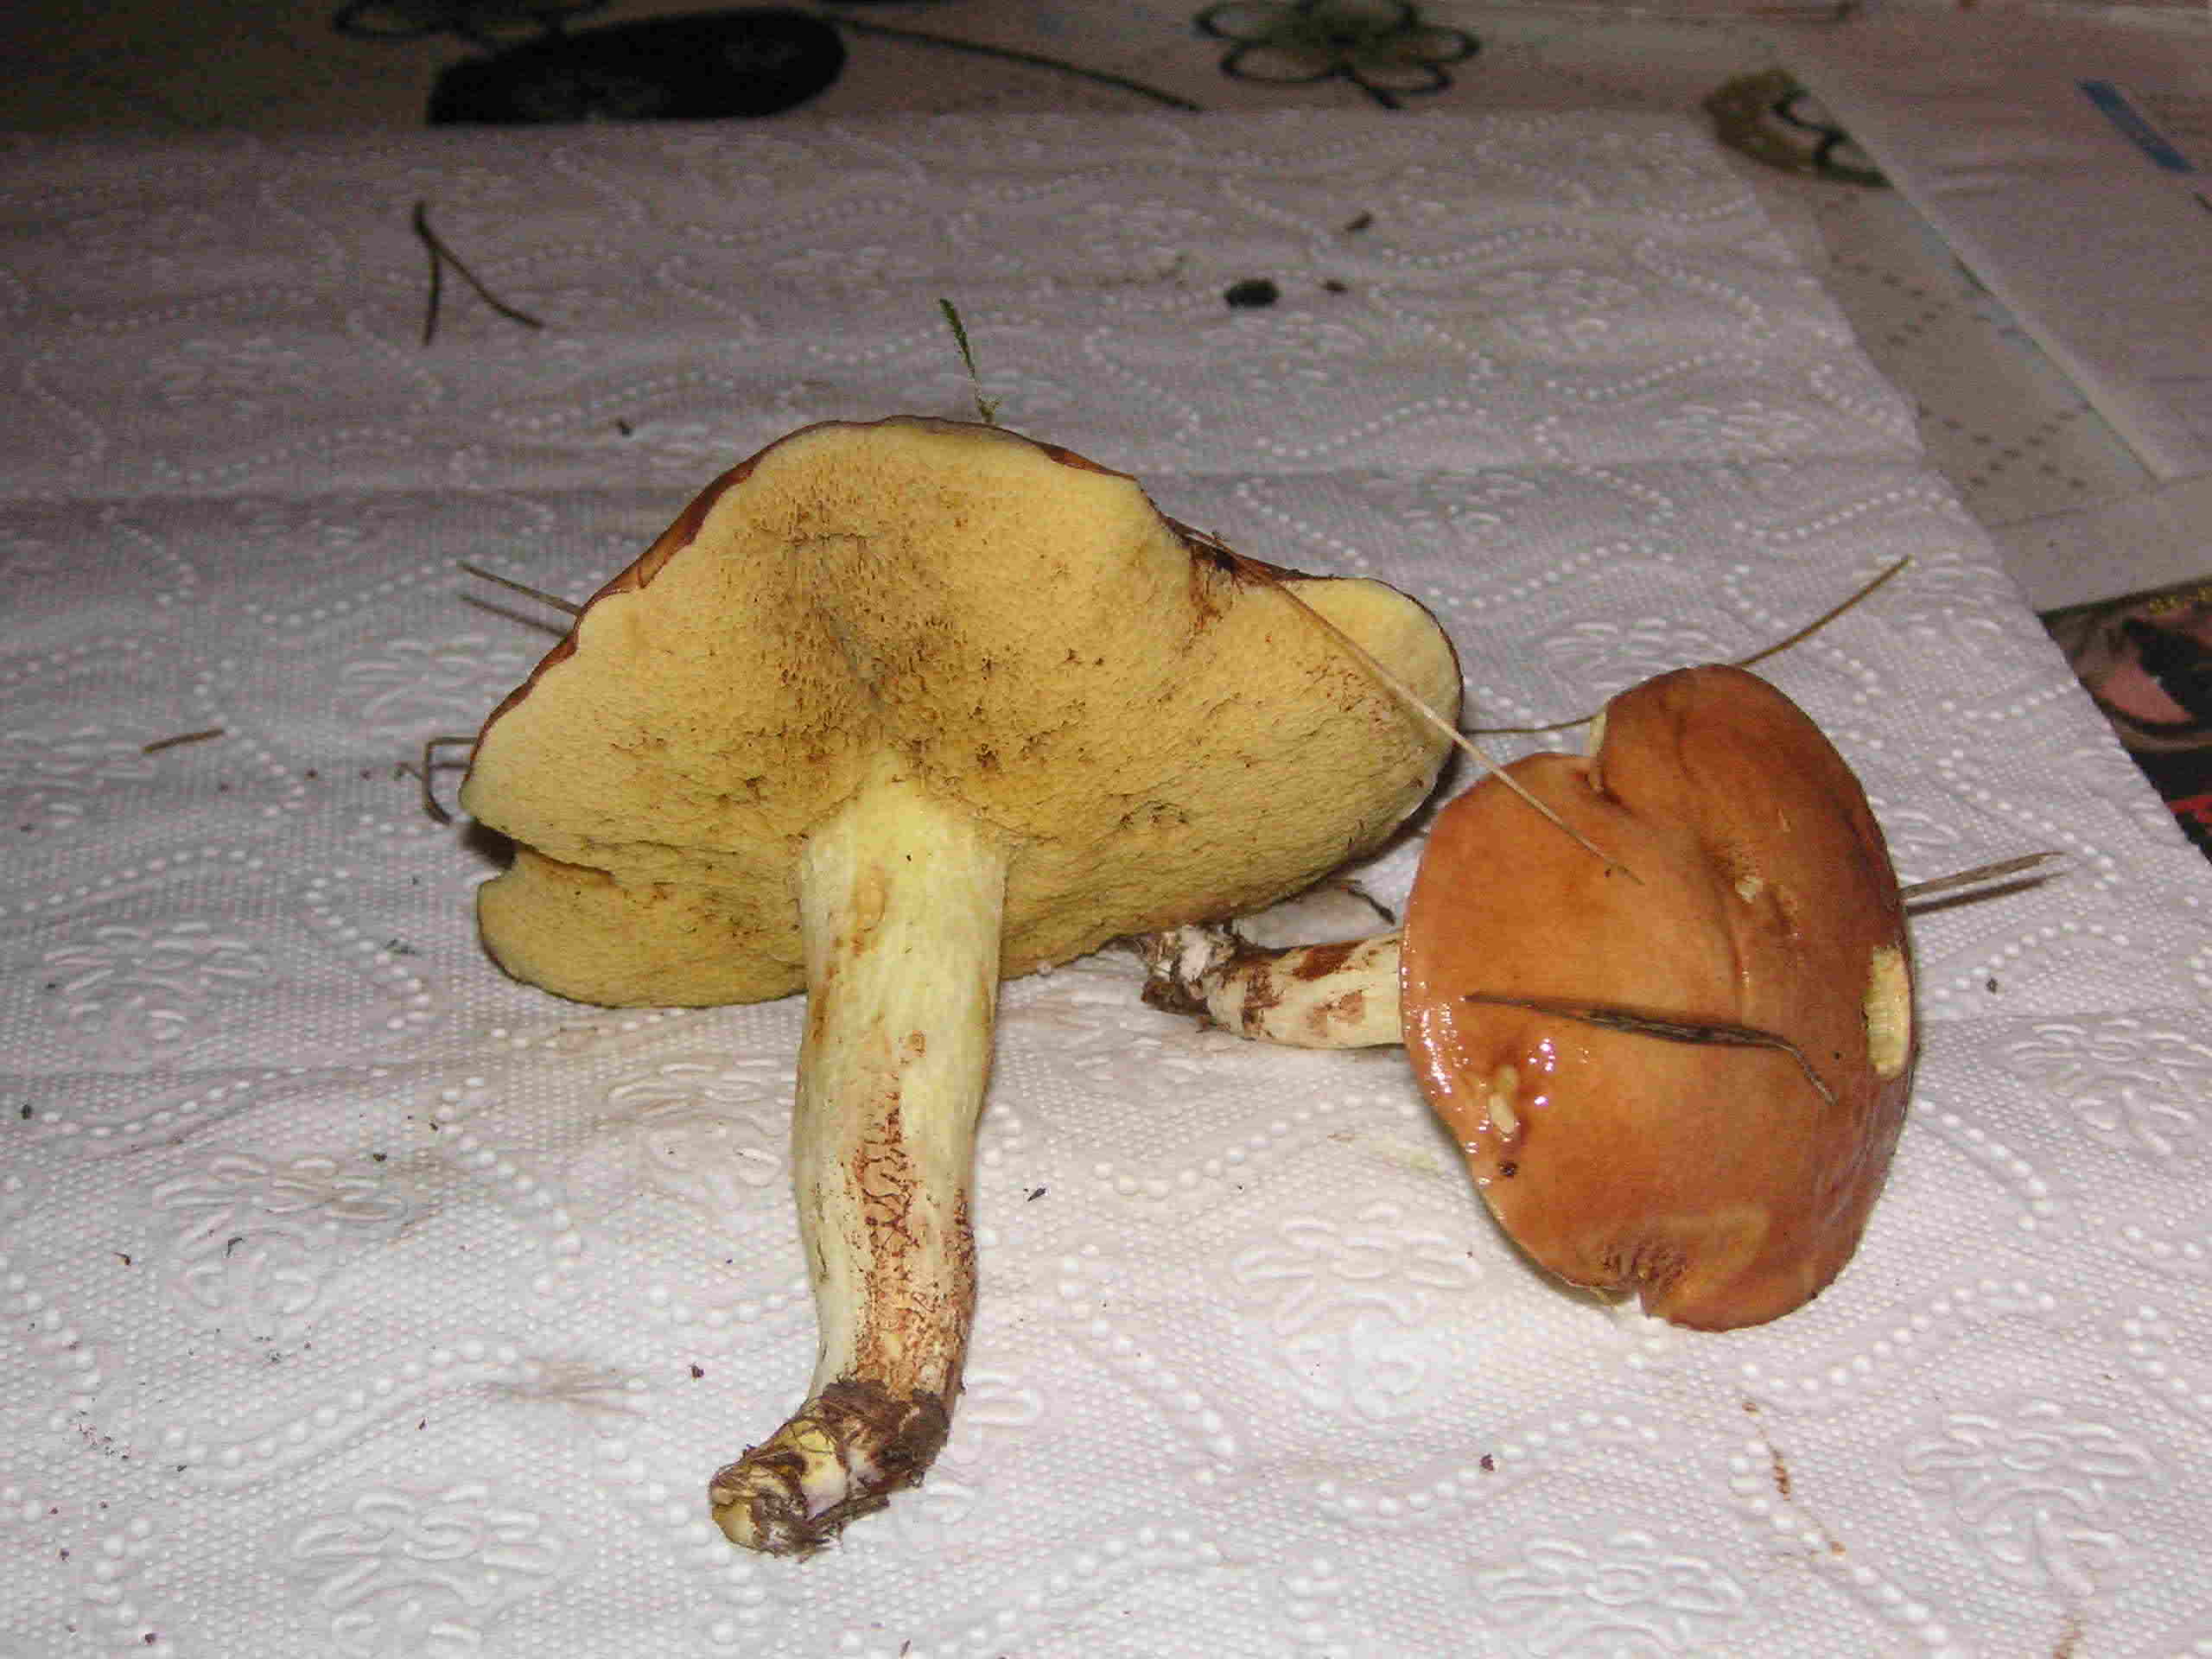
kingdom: Fungi
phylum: Basidiomycota
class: Agaricomycetes
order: Boletales
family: Suillaceae
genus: Suillus
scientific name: Suillus granulatus
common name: kornet slimrørhat
